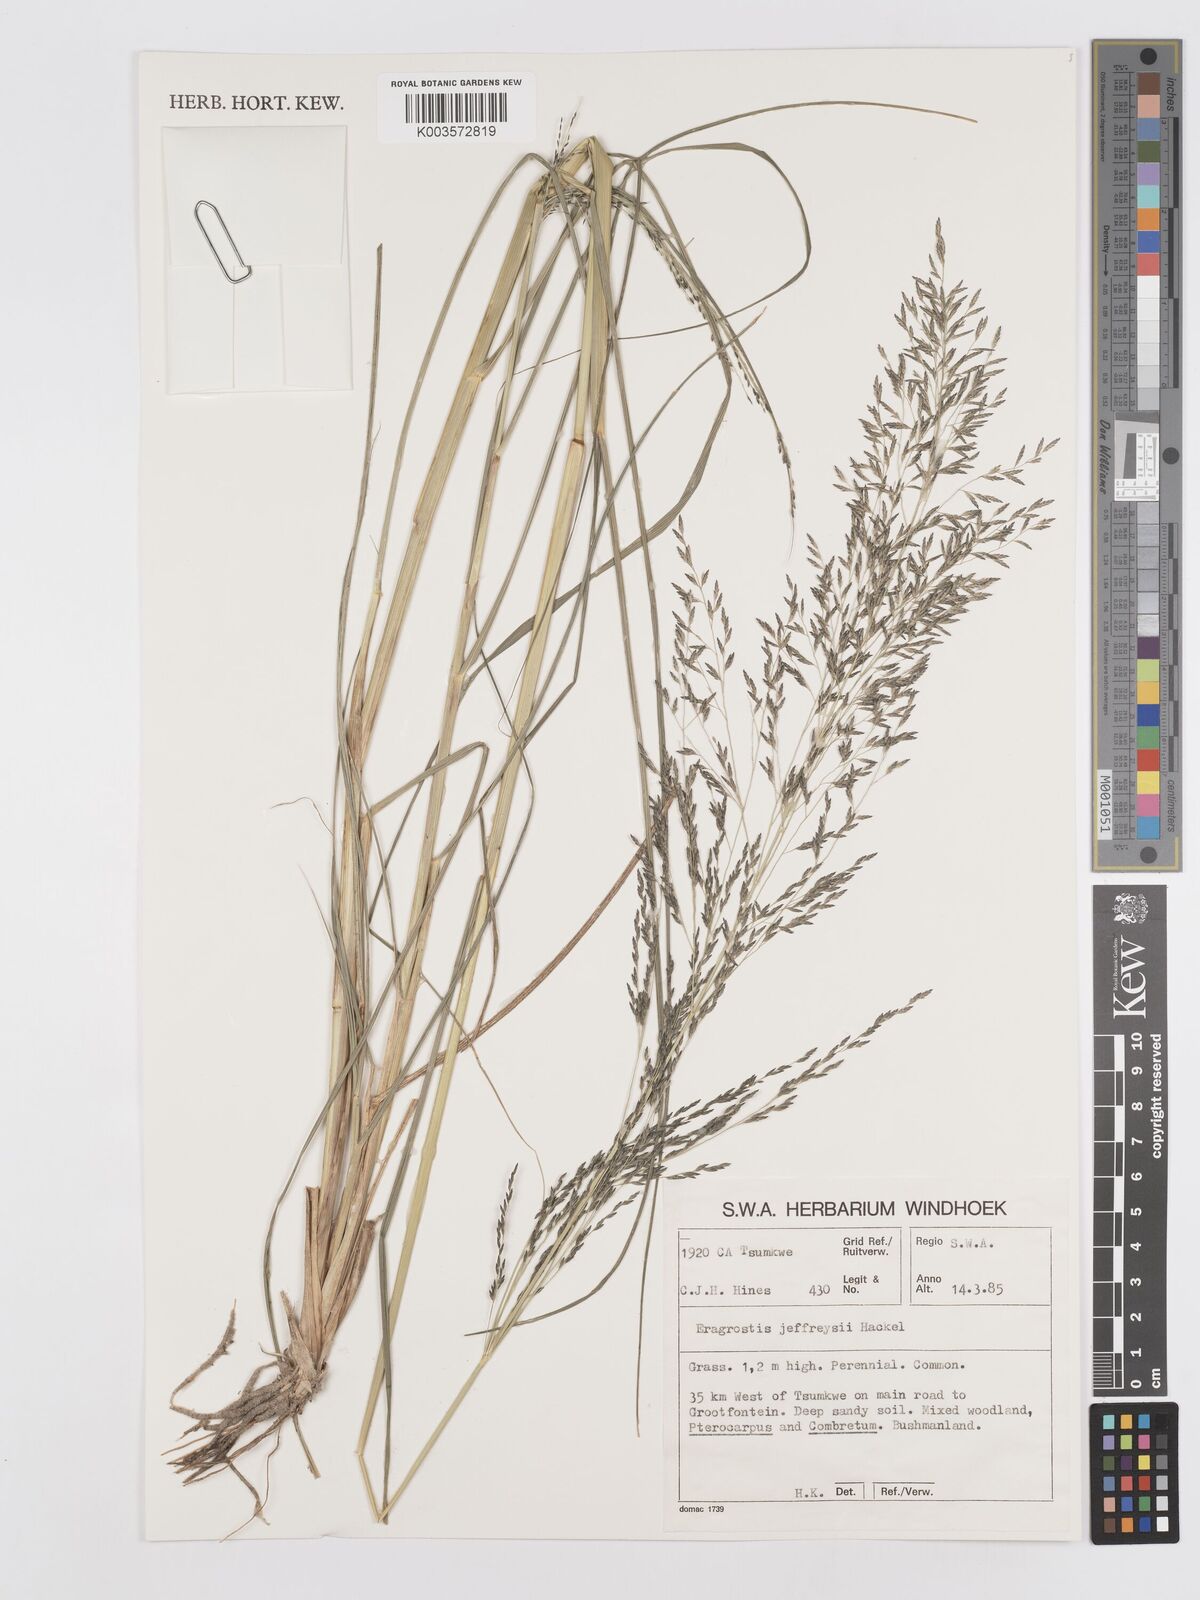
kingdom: Plantae
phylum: Tracheophyta
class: Liliopsida
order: Poales
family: Poaceae
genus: Eragrostis
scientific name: Eragrostis curvula
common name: African love-grass
